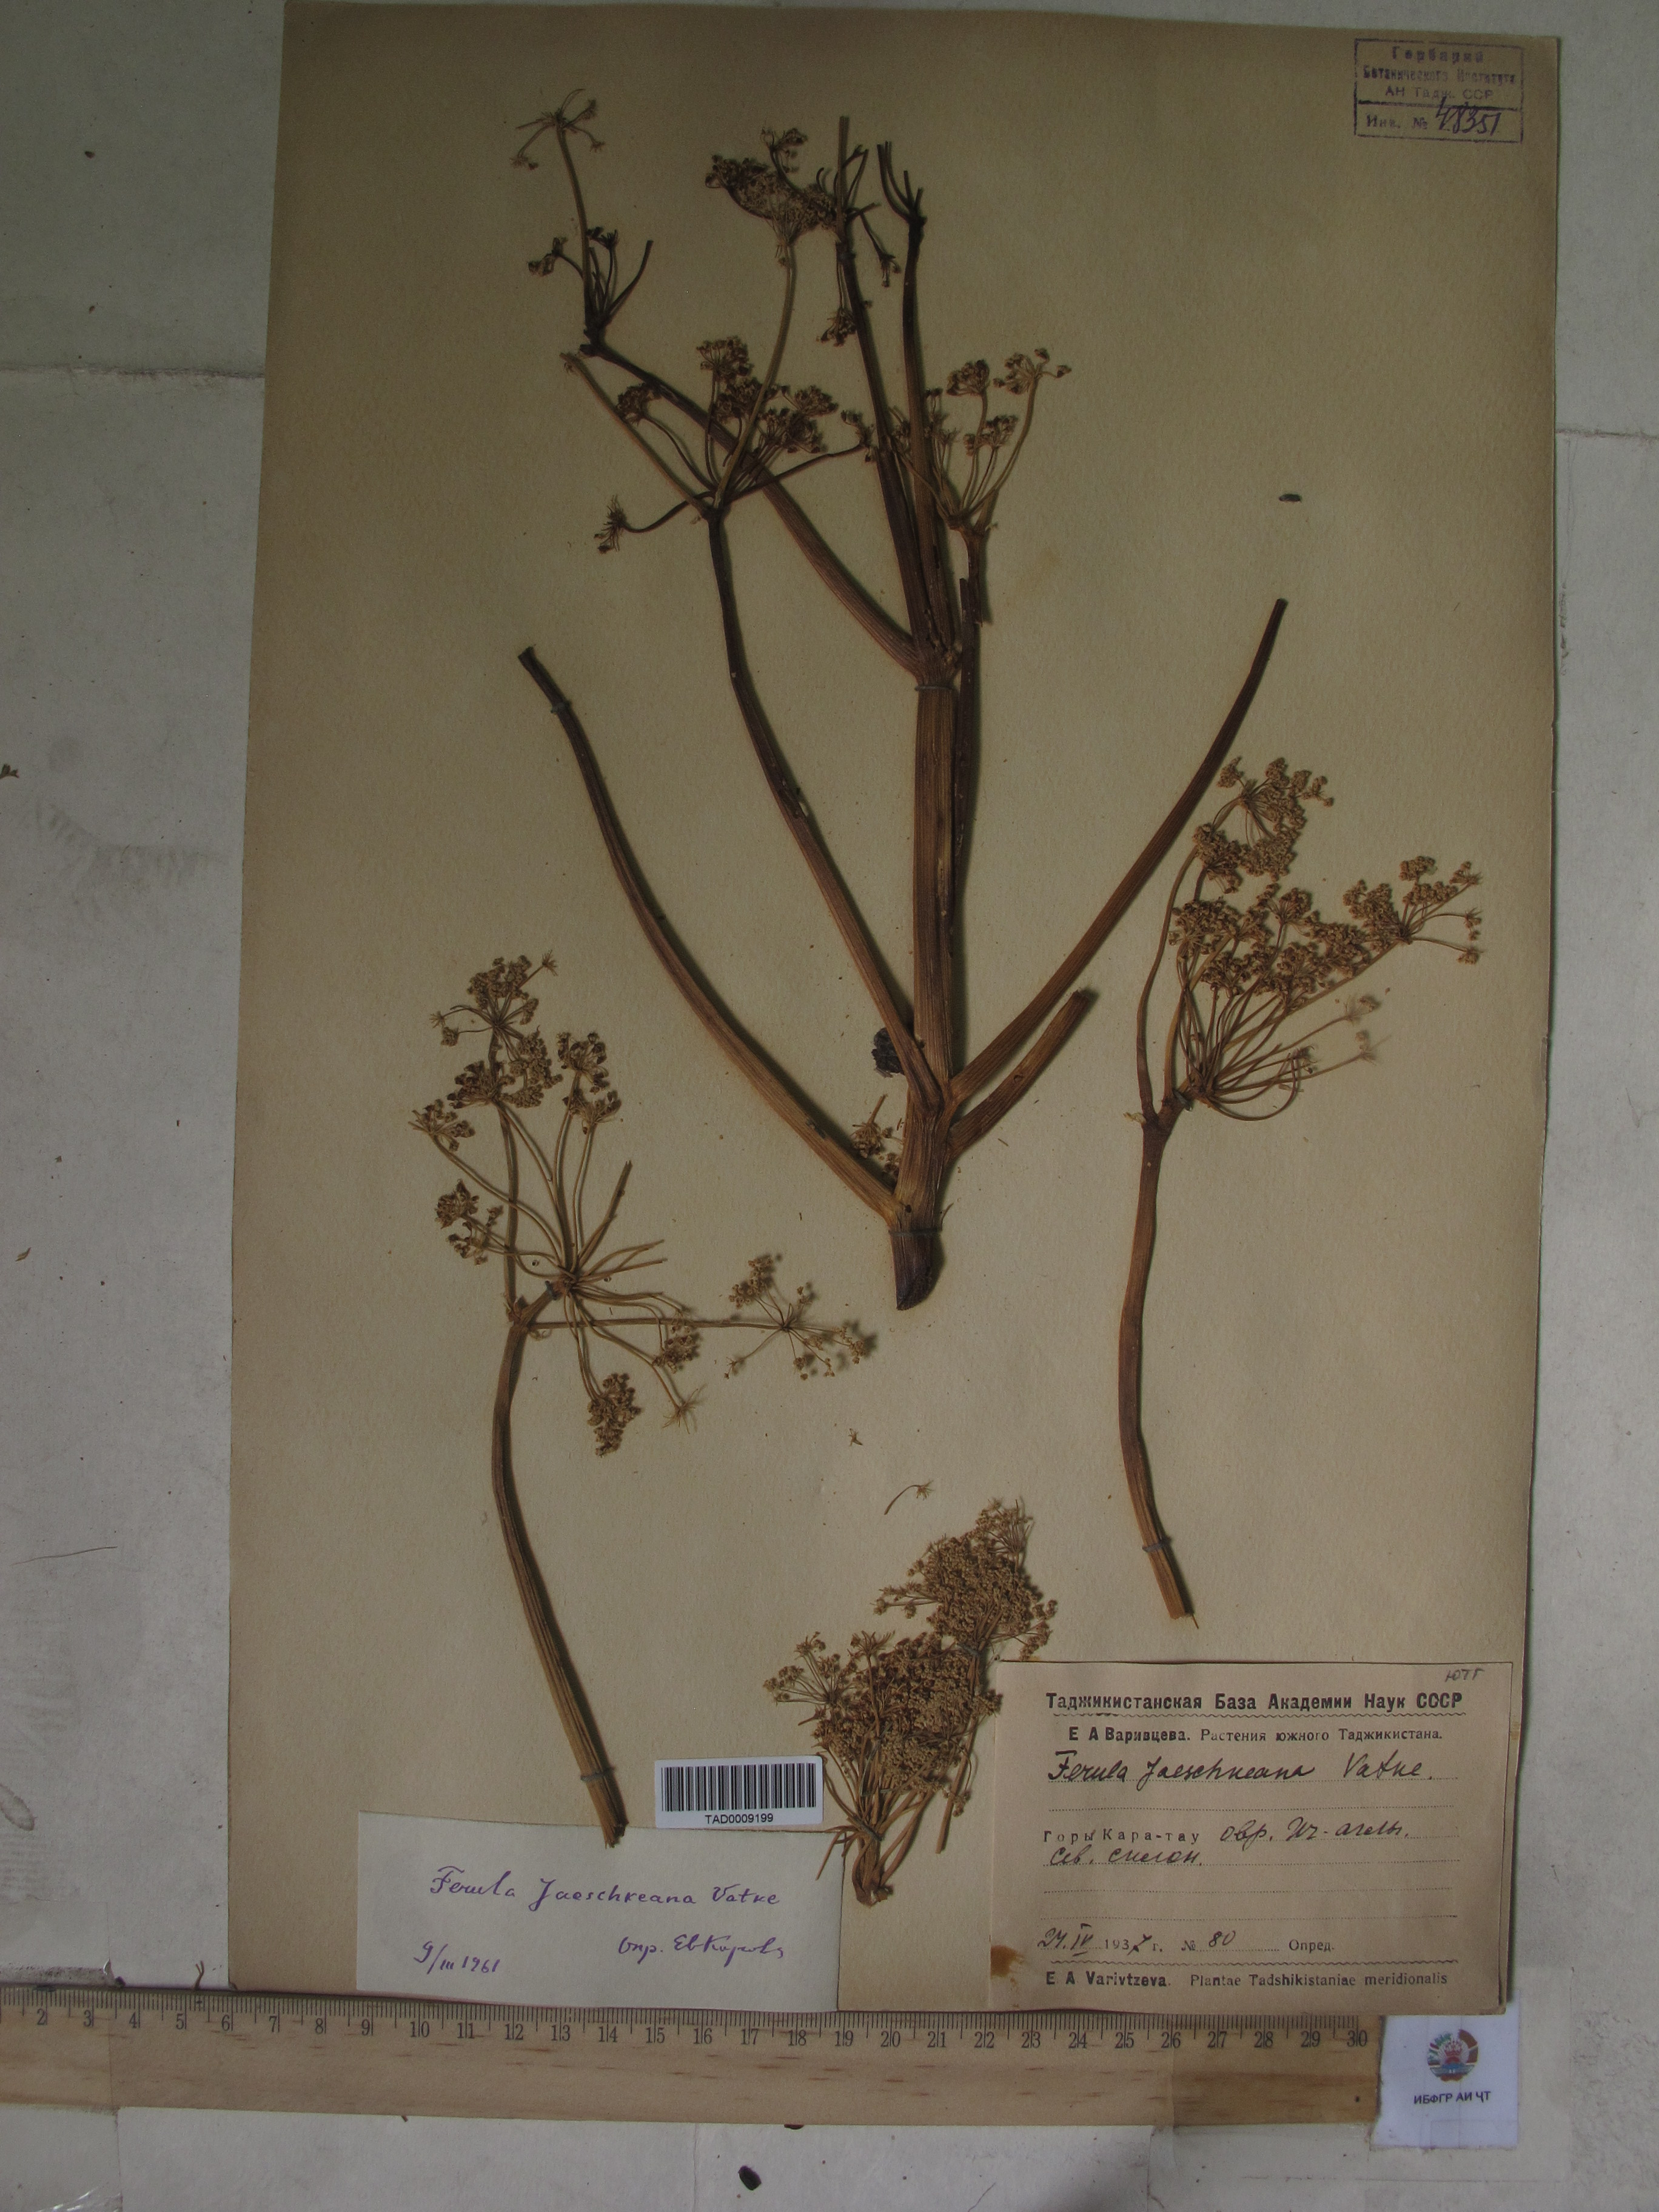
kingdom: Plantae
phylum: Tracheophyta
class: Magnoliopsida
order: Apiales
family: Apiaceae
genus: Ferula
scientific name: Ferula jaeschkeana
